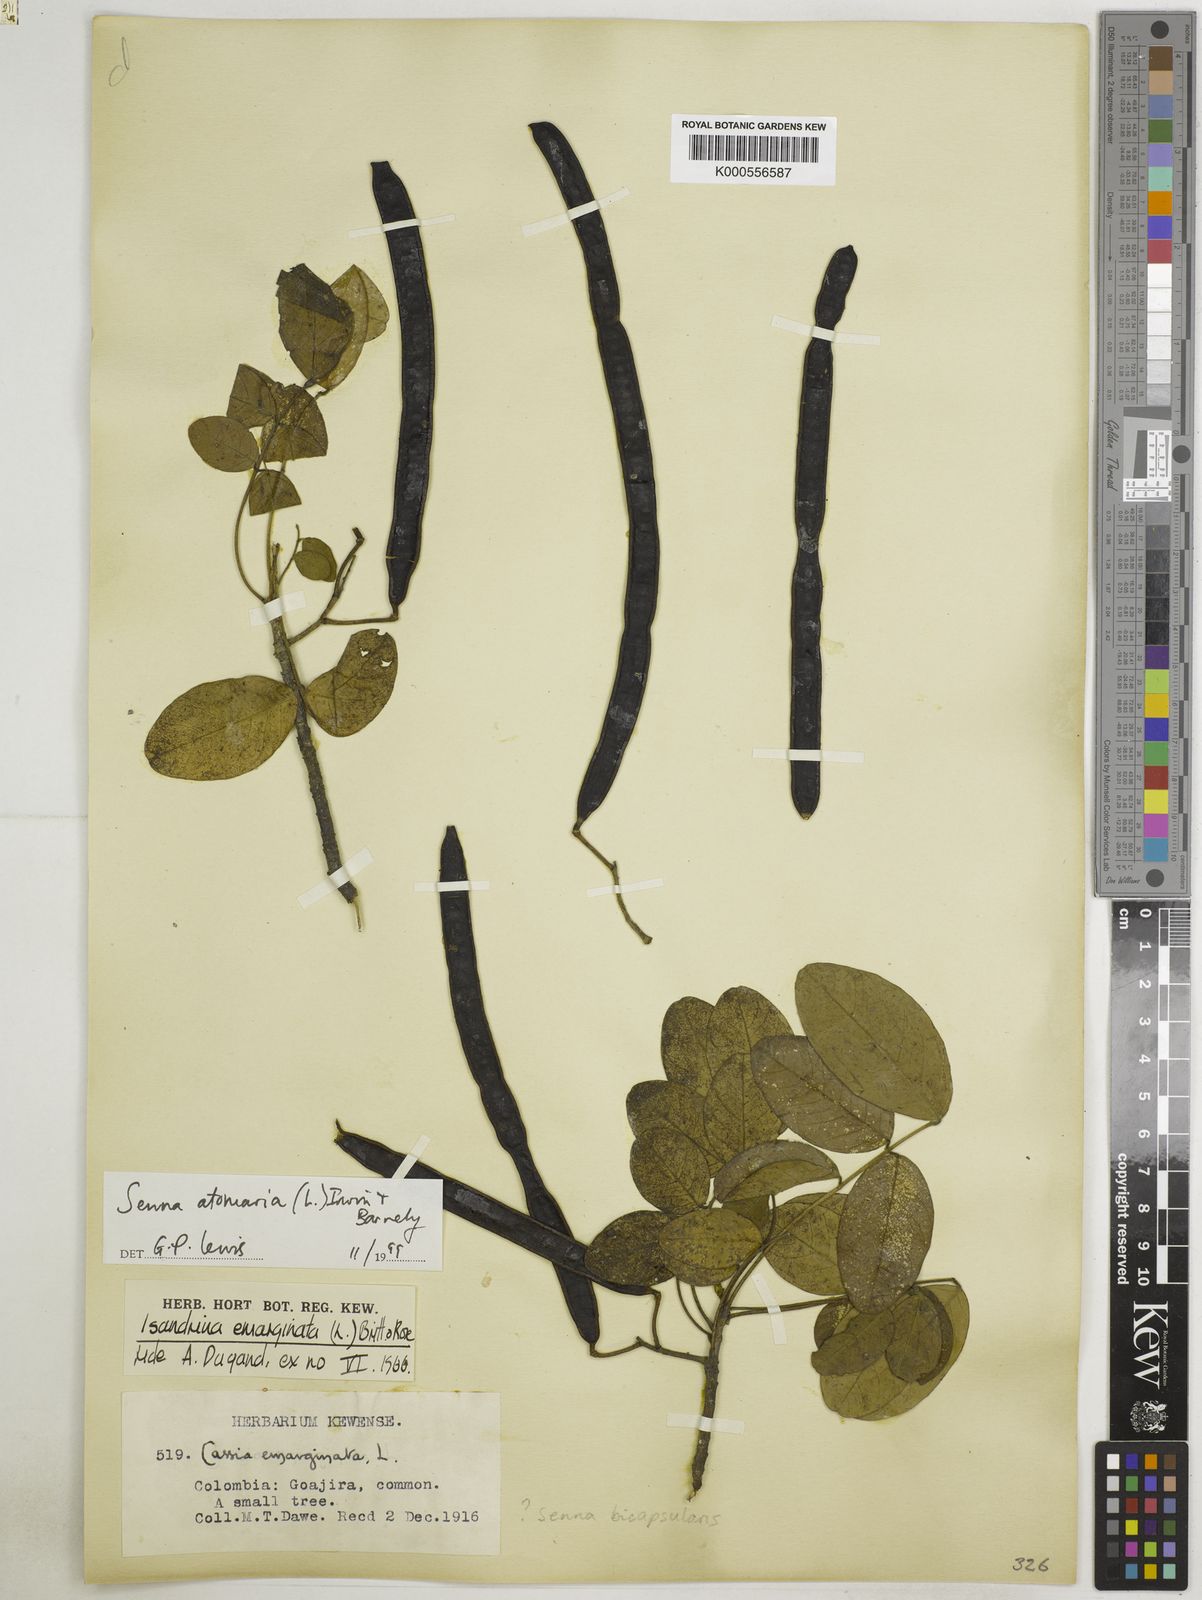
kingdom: Plantae
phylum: Tracheophyta
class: Magnoliopsida
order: Fabales
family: Fabaceae
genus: Senna
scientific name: Senna atomaria
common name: Flor de san jose
